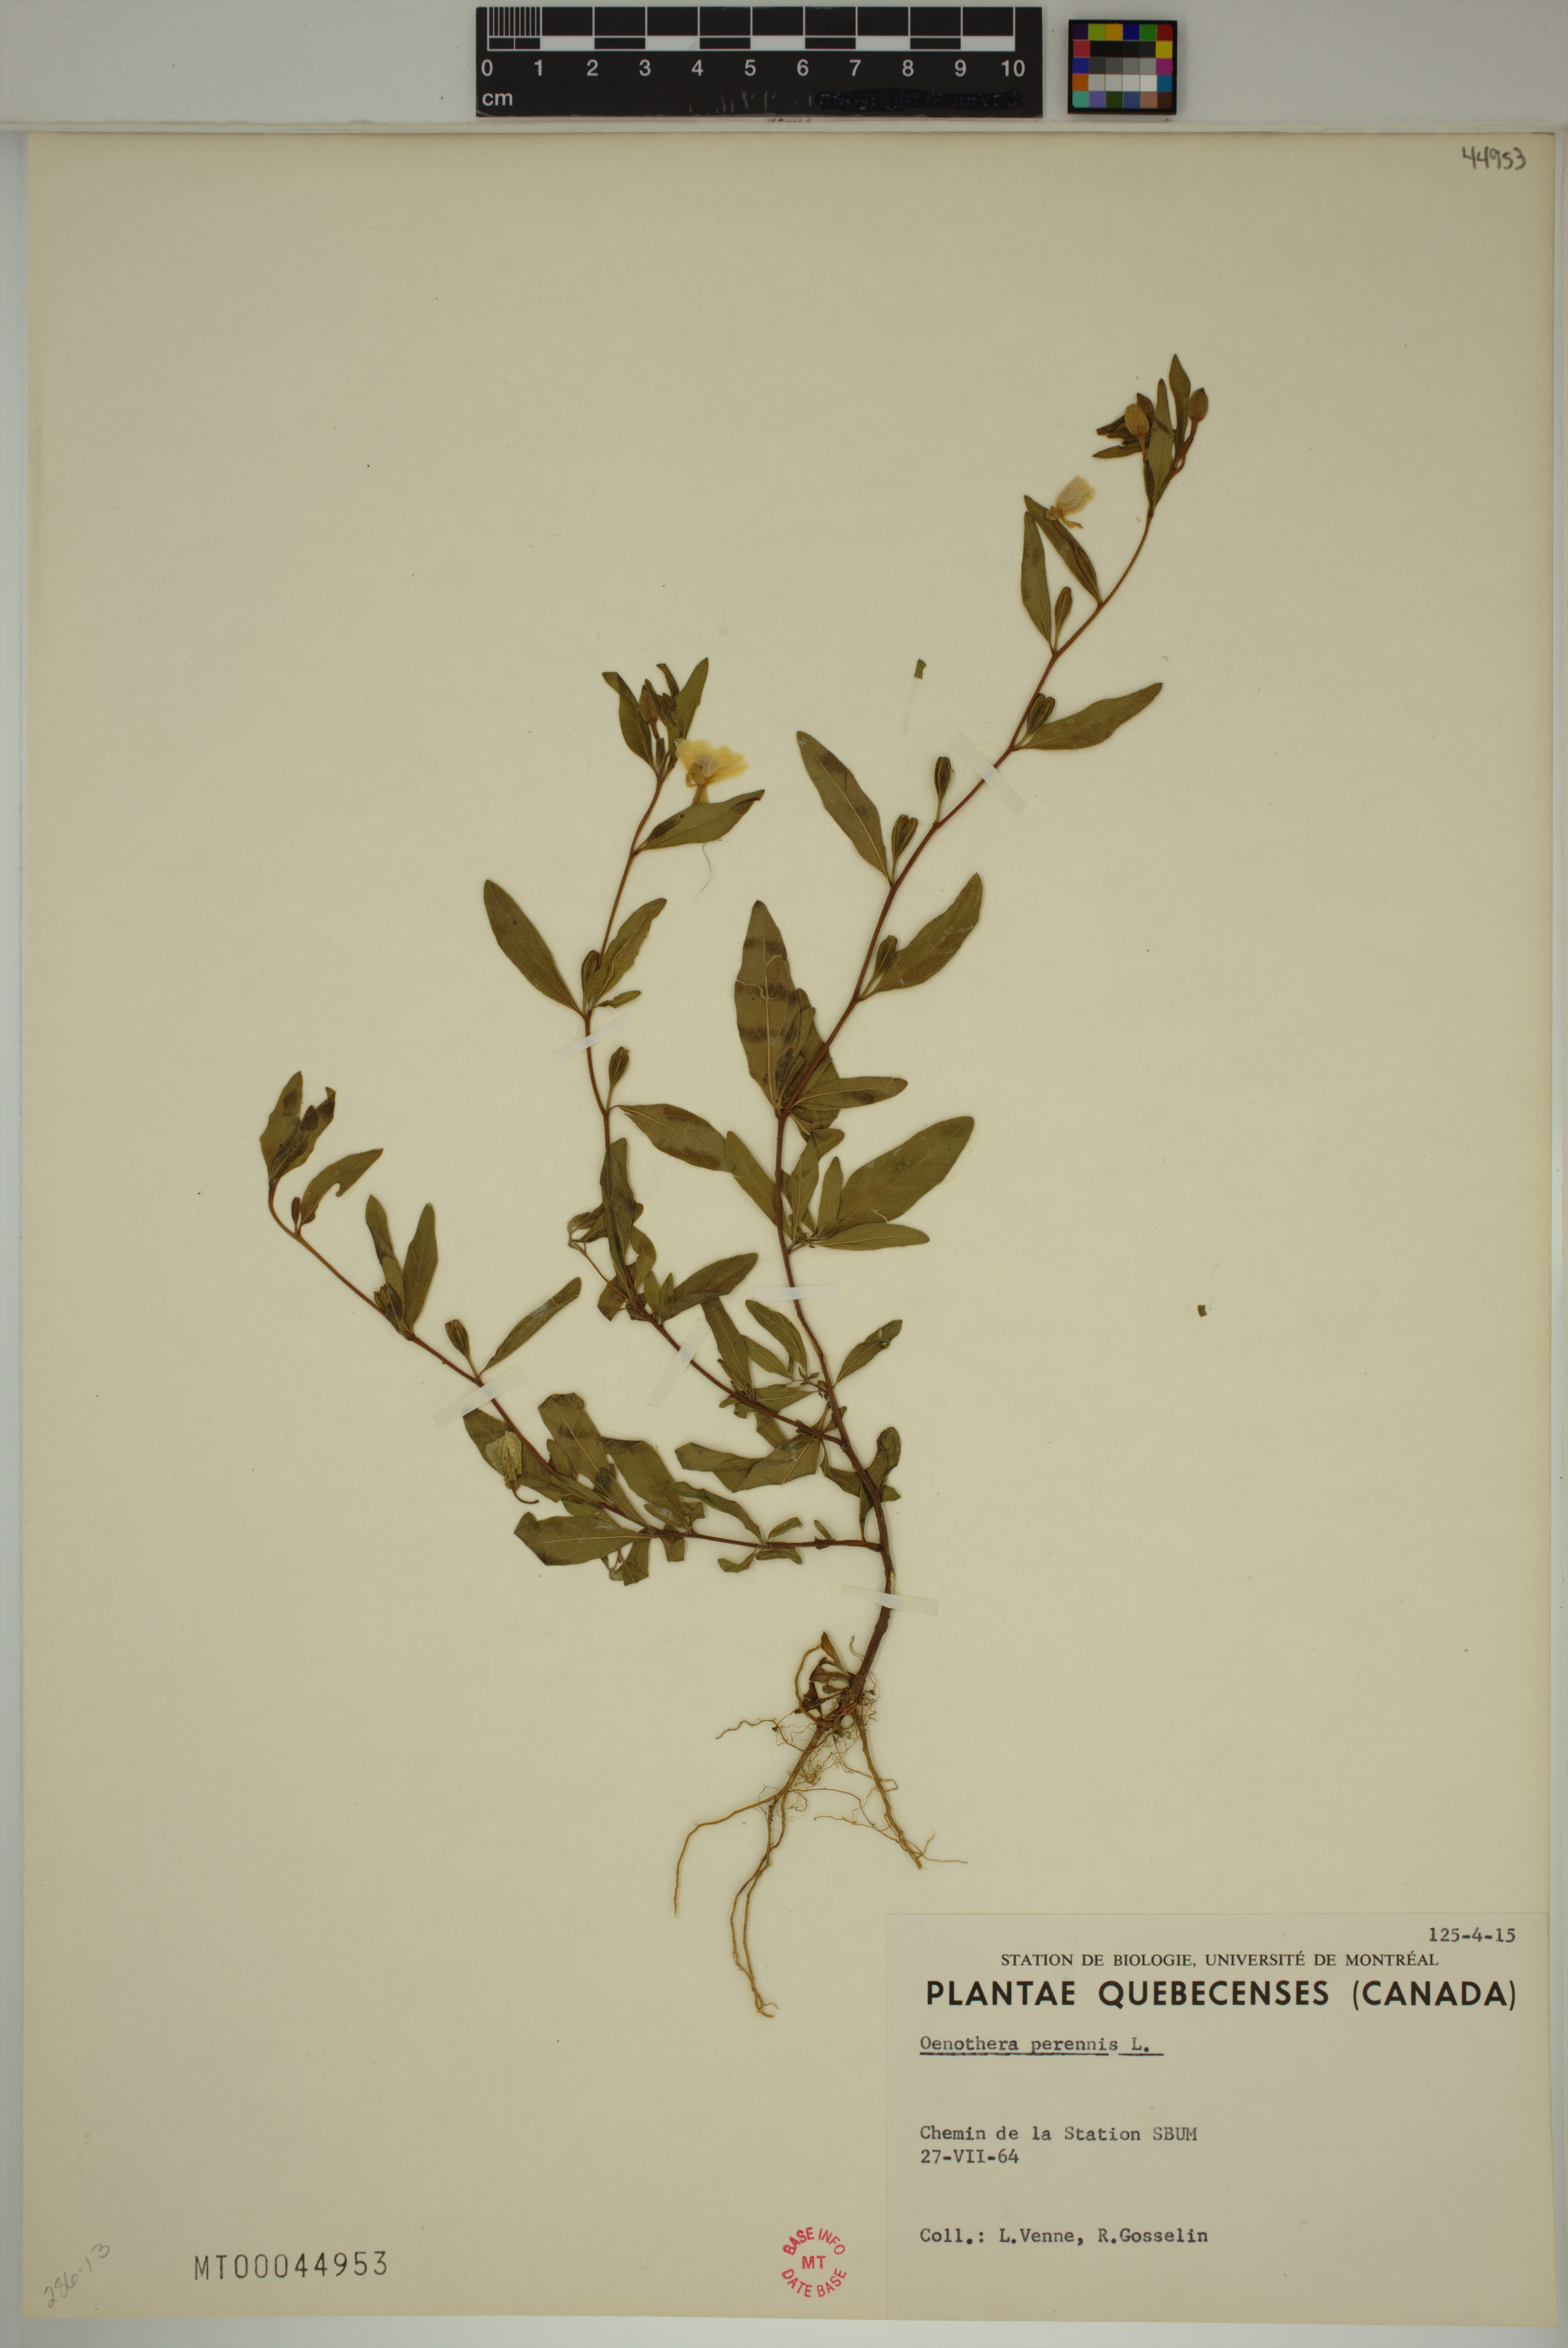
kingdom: Plantae
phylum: Tracheophyta
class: Magnoliopsida
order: Myrtales
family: Onagraceae
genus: Oenothera
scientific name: Oenothera perennis
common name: Small sundrops
